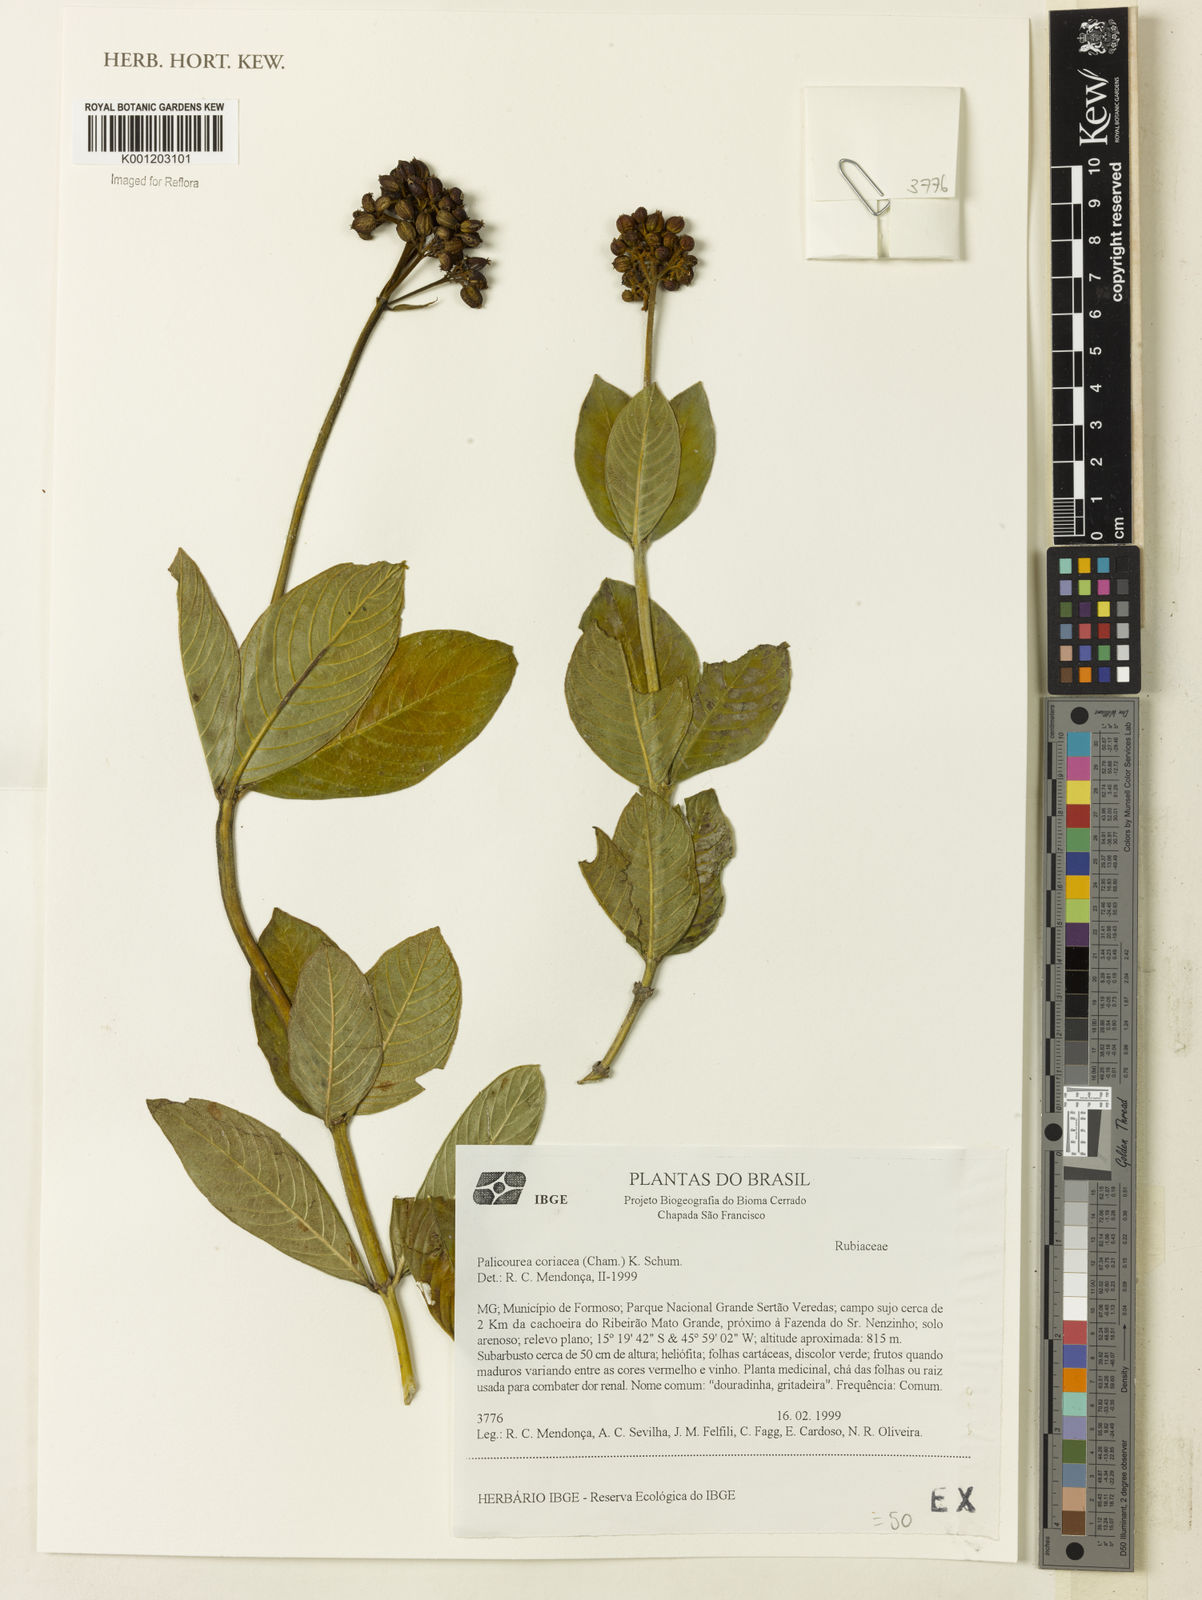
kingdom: Plantae
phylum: Tracheophyta
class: Magnoliopsida
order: Gentianales
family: Rubiaceae
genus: Palicourea
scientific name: Palicourea coriacea
